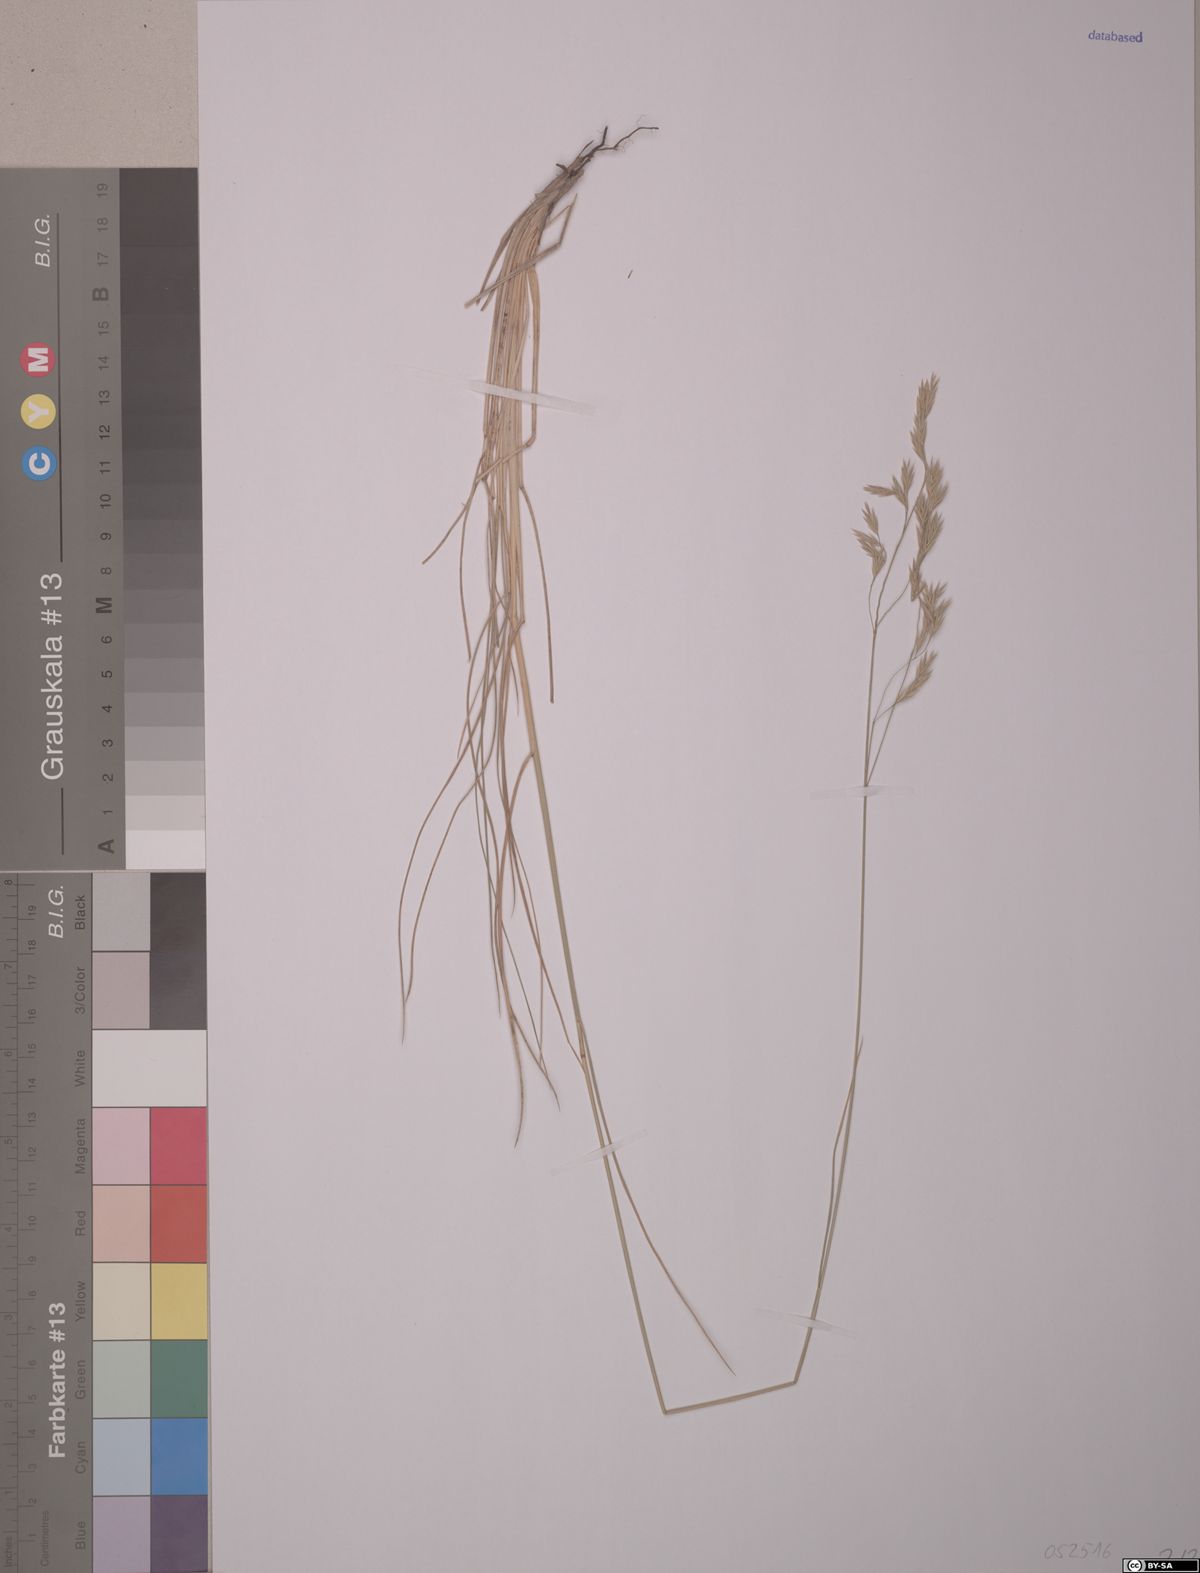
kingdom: Plantae
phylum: Tracheophyta
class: Liliopsida
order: Poales
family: Poaceae
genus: Festuca
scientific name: Festuca ampla
